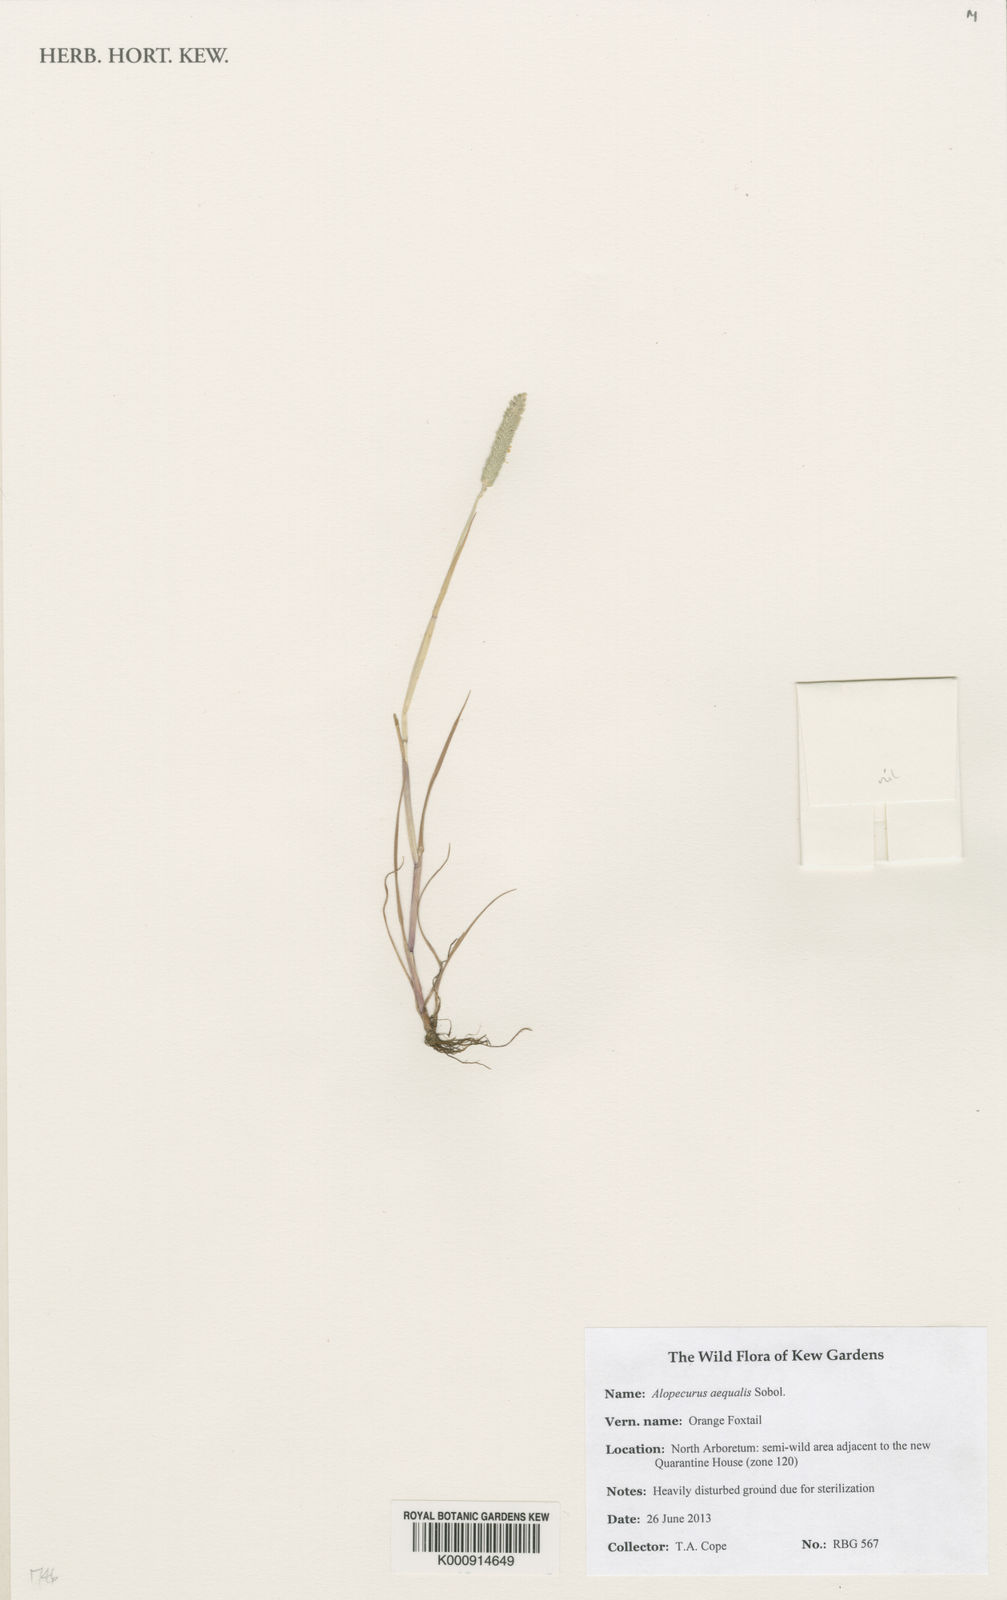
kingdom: Plantae
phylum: Tracheophyta
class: Liliopsida
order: Poales
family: Poaceae
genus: Alopecurus
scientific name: Alopecurus aequalis
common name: Orange foxtail
